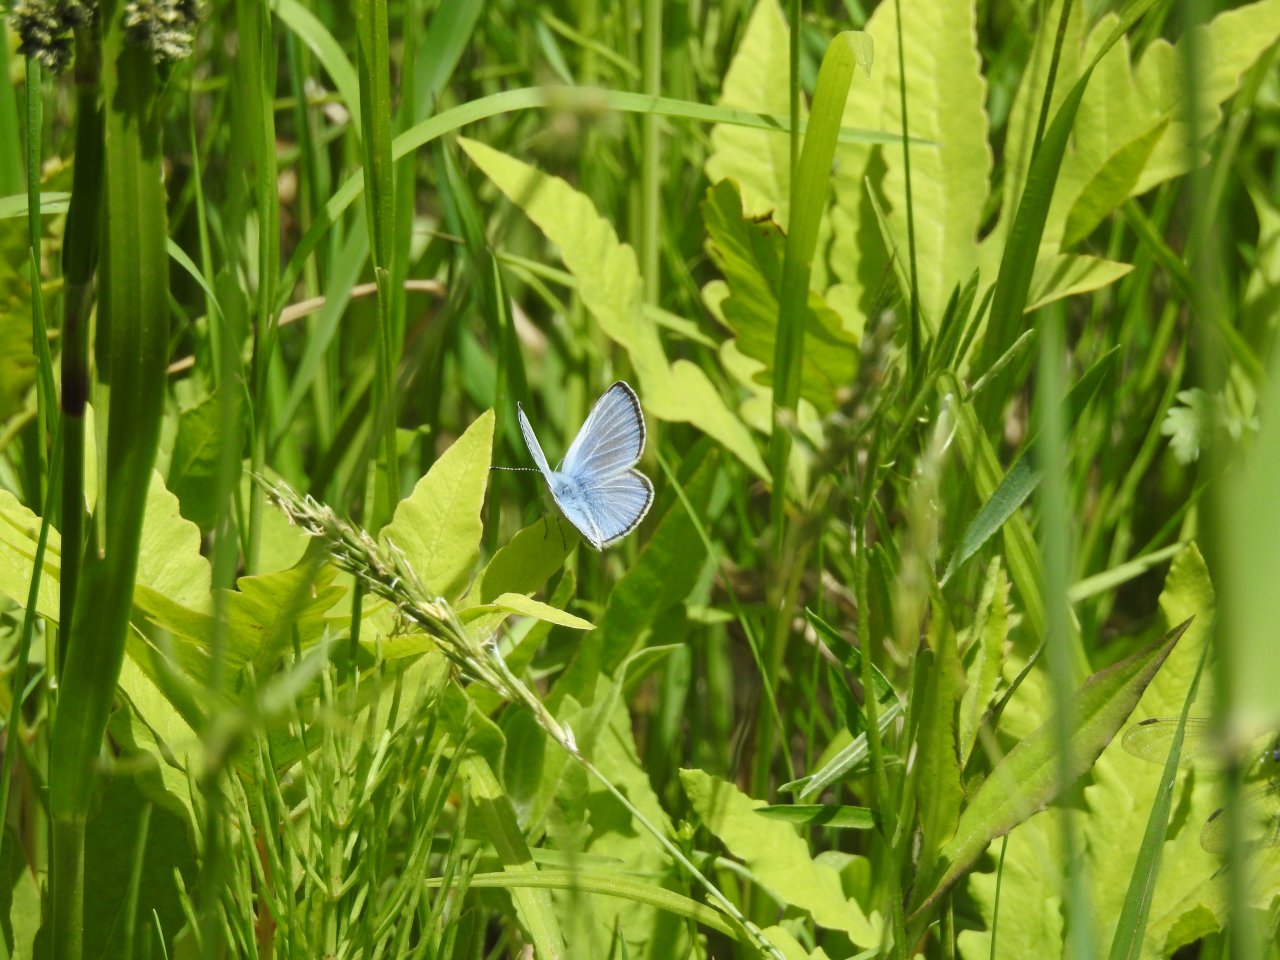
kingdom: Animalia
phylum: Arthropoda
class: Insecta
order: Lepidoptera
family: Lycaenidae
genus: Glaucopsyche
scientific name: Glaucopsyche lygdamus
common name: Silvery Blue
